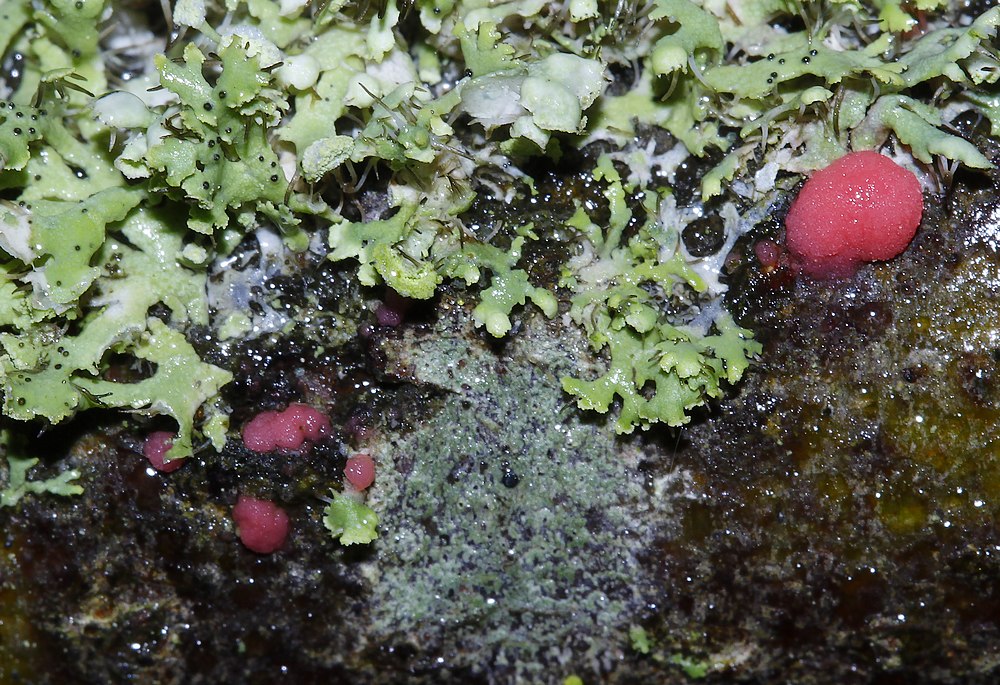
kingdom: Fungi
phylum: Ascomycota
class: Sordariomycetes
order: Hypocreales
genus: Illosporiopsis
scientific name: Illosporiopsis christiansenii
